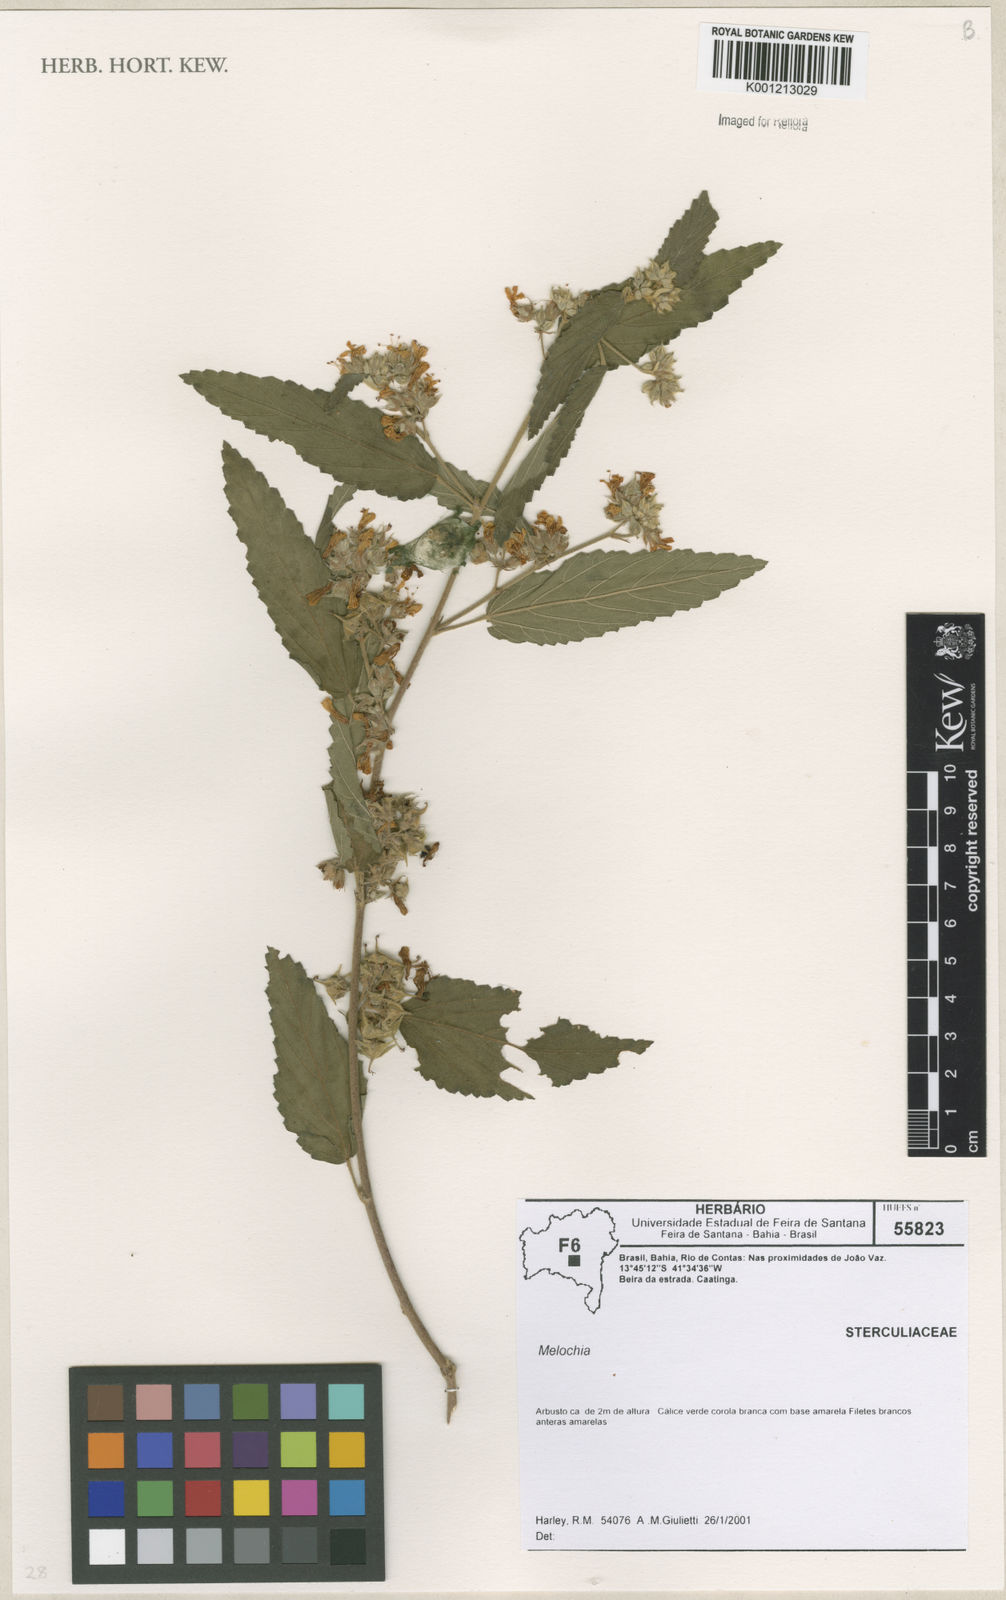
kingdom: Plantae
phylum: Tracheophyta
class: Magnoliopsida
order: Malvales
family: Malvaceae
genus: Melochia
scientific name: Melochia
